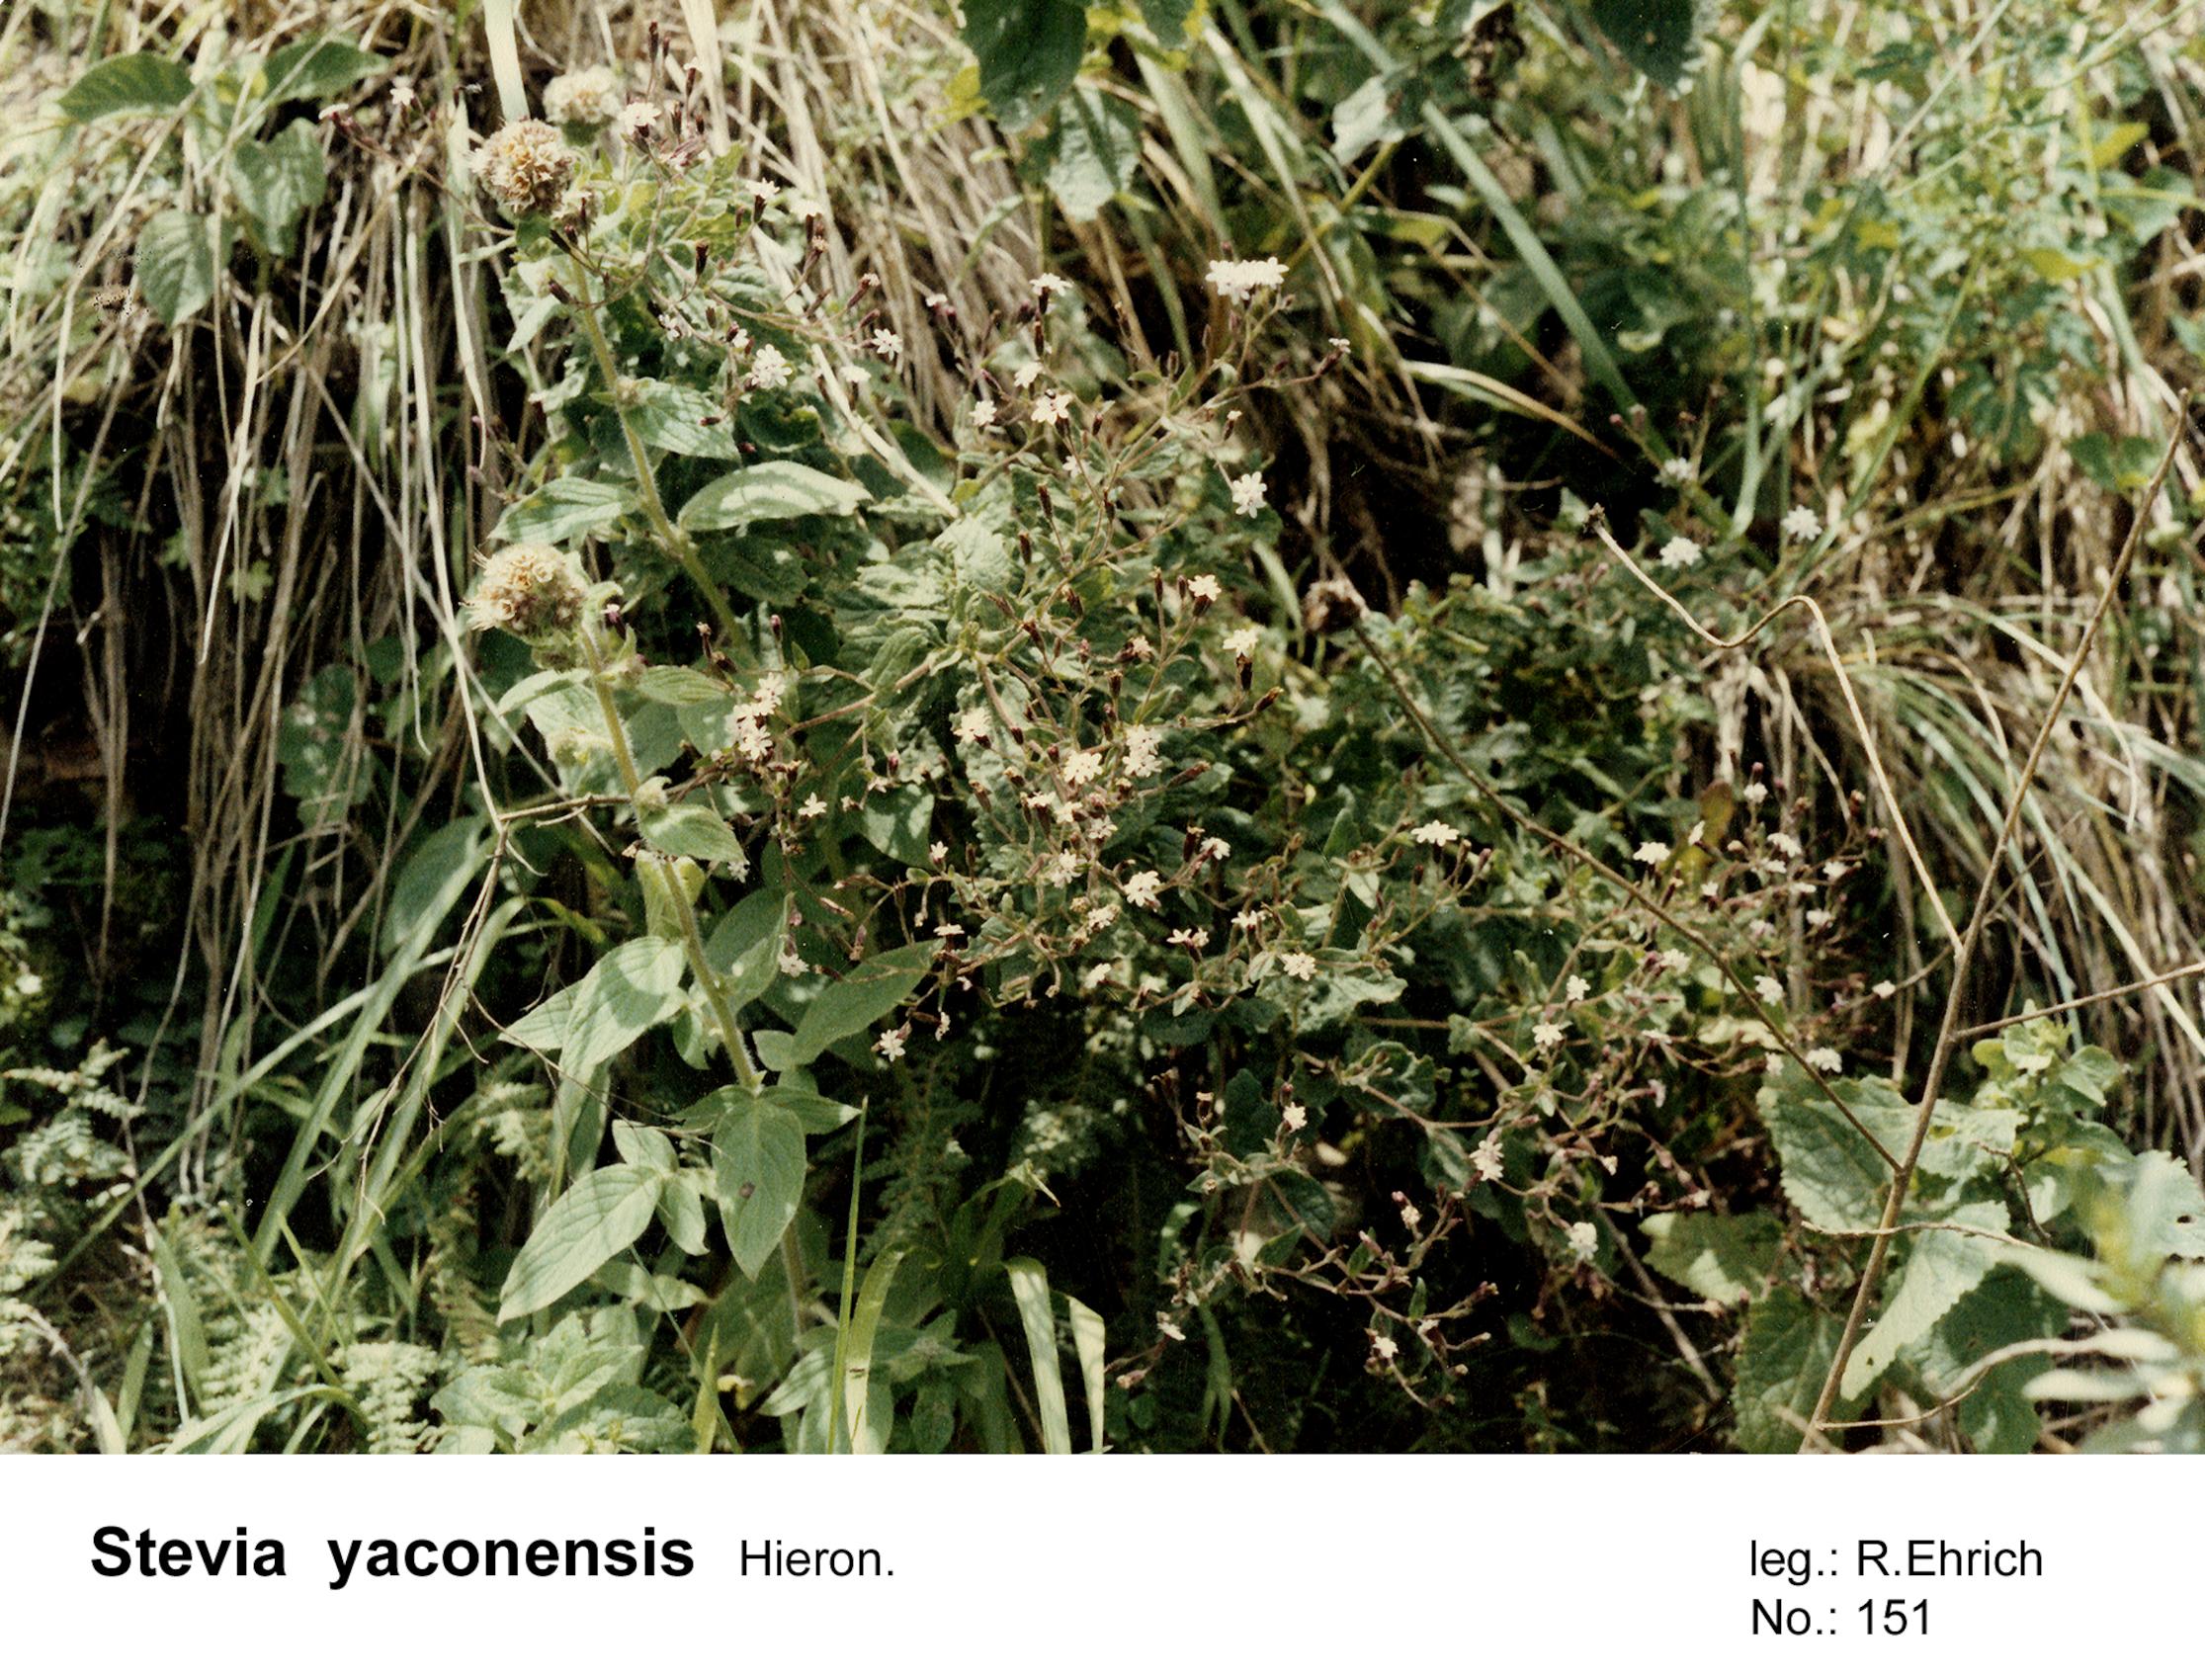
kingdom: Plantae
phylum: Tracheophyta
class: Magnoliopsida
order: Asterales
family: Asteraceae
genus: Stevia
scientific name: Stevia yaconensis
